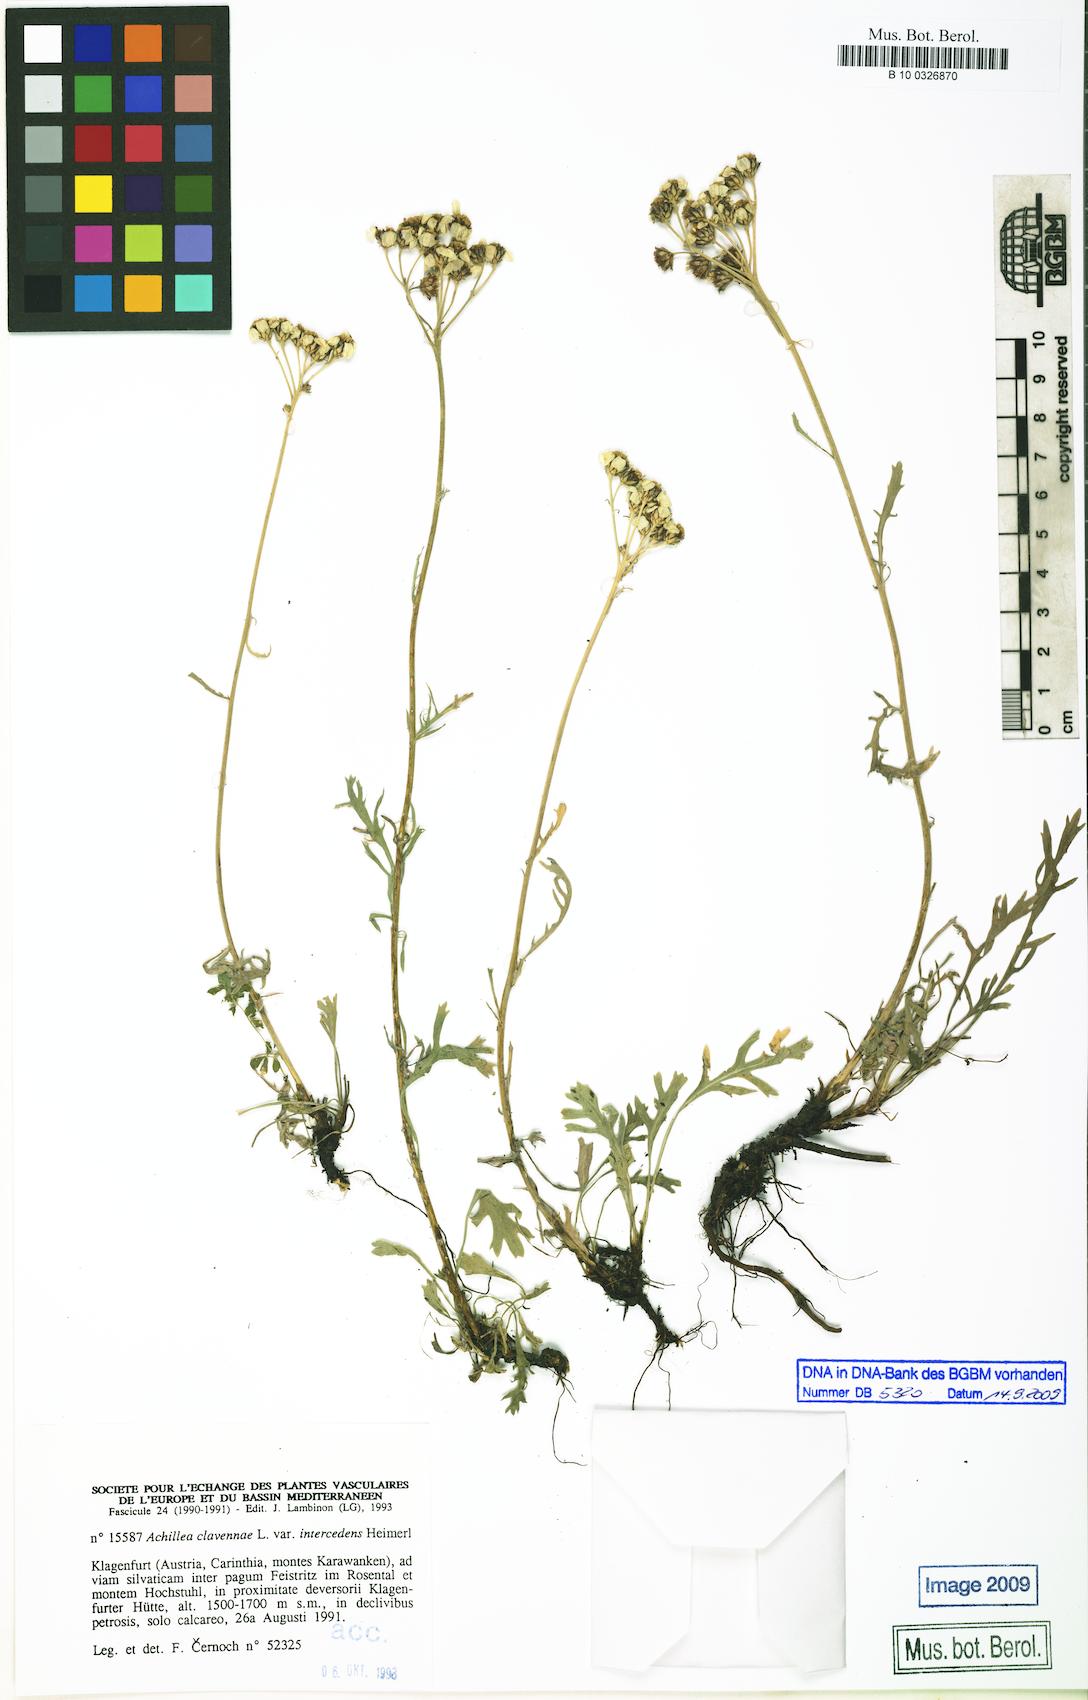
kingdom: Plantae
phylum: Tracheophyta
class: Magnoliopsida
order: Asterales
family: Asteraceae
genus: Achillea
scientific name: Achillea clavennae
